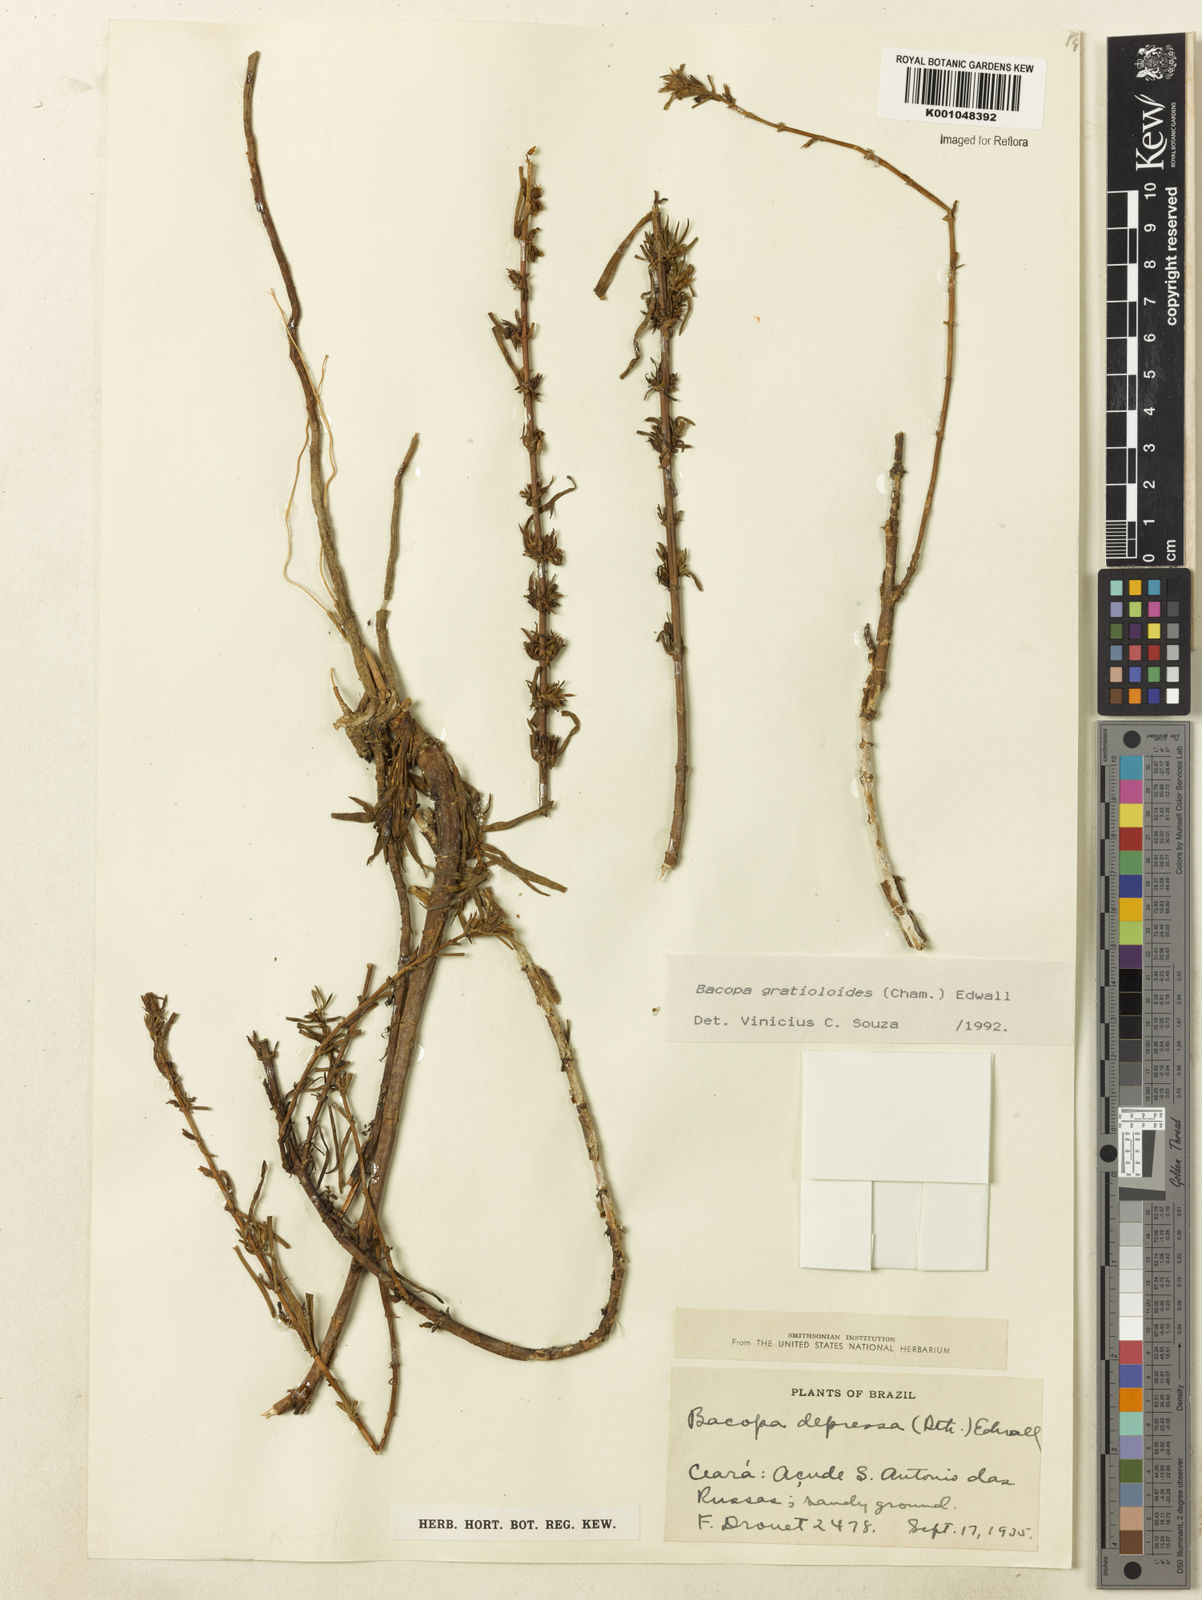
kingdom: Plantae
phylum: Tracheophyta
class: Magnoliopsida
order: Lamiales
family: Plantaginaceae
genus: Bacopa
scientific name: Bacopa
